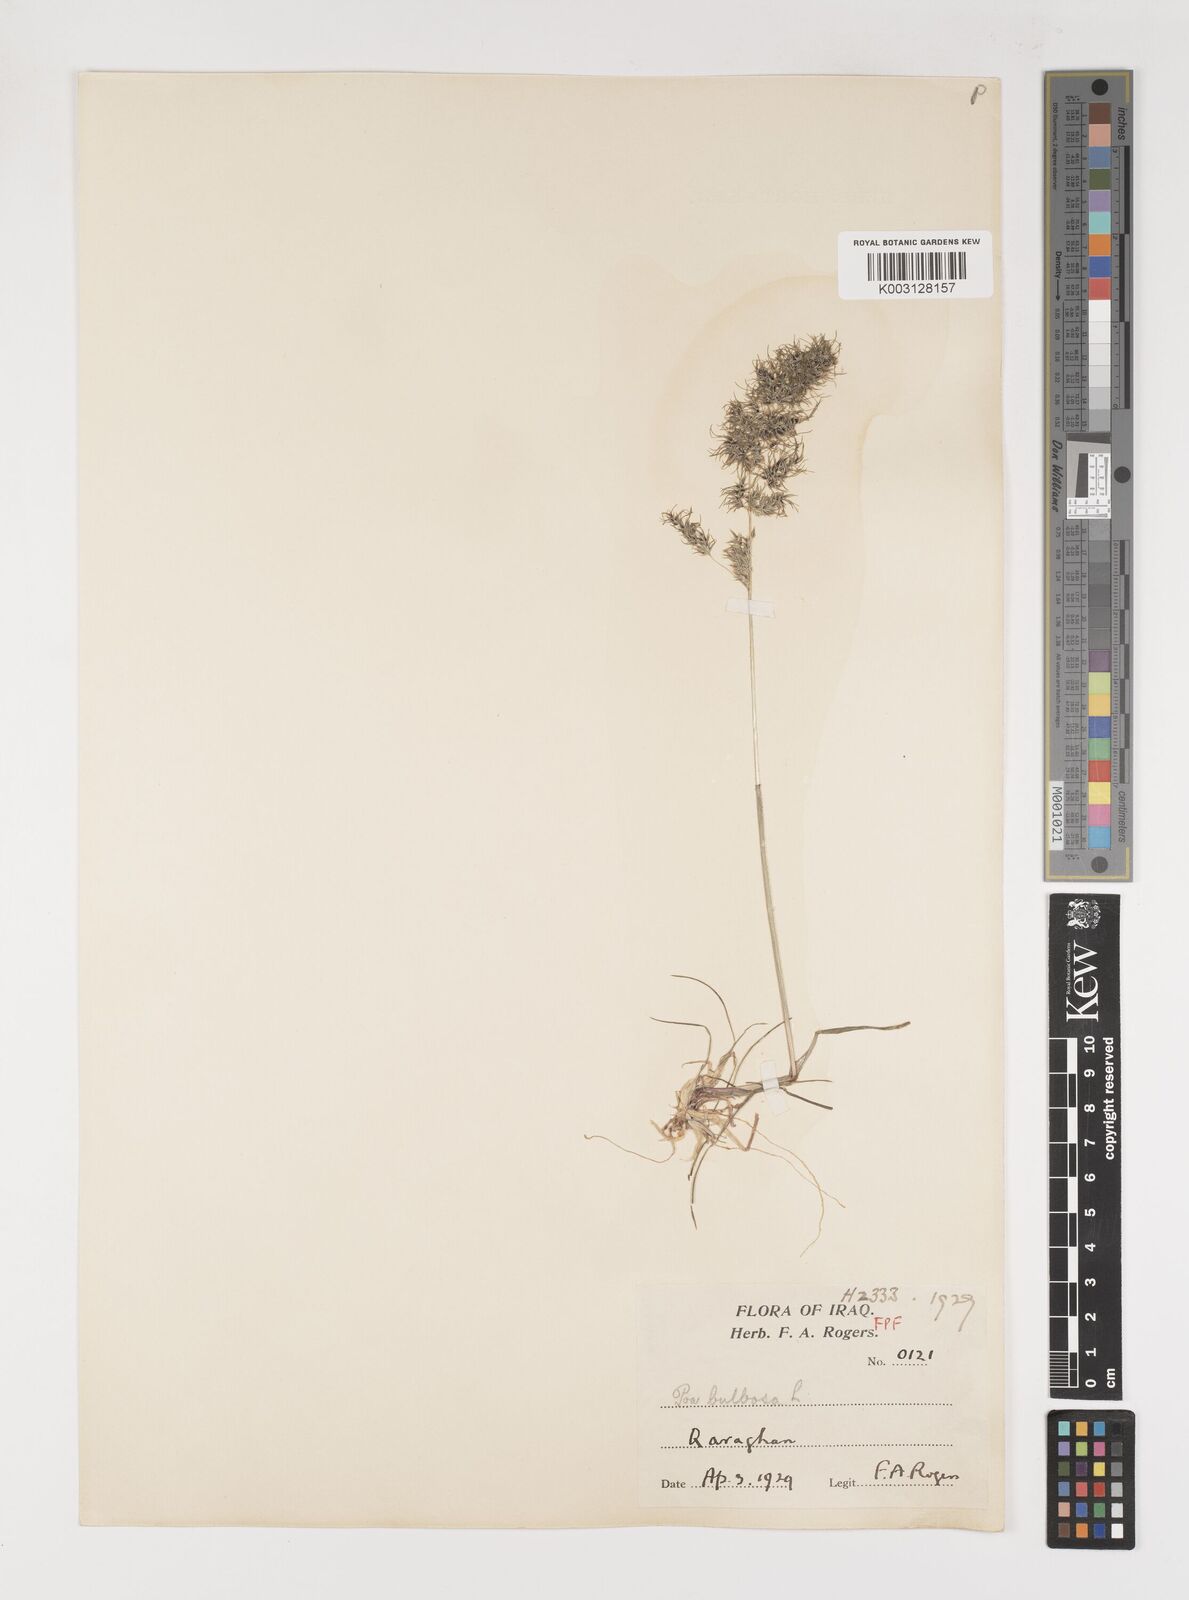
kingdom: Plantae
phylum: Tracheophyta
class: Liliopsida
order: Poales
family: Poaceae
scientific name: Poaceae
